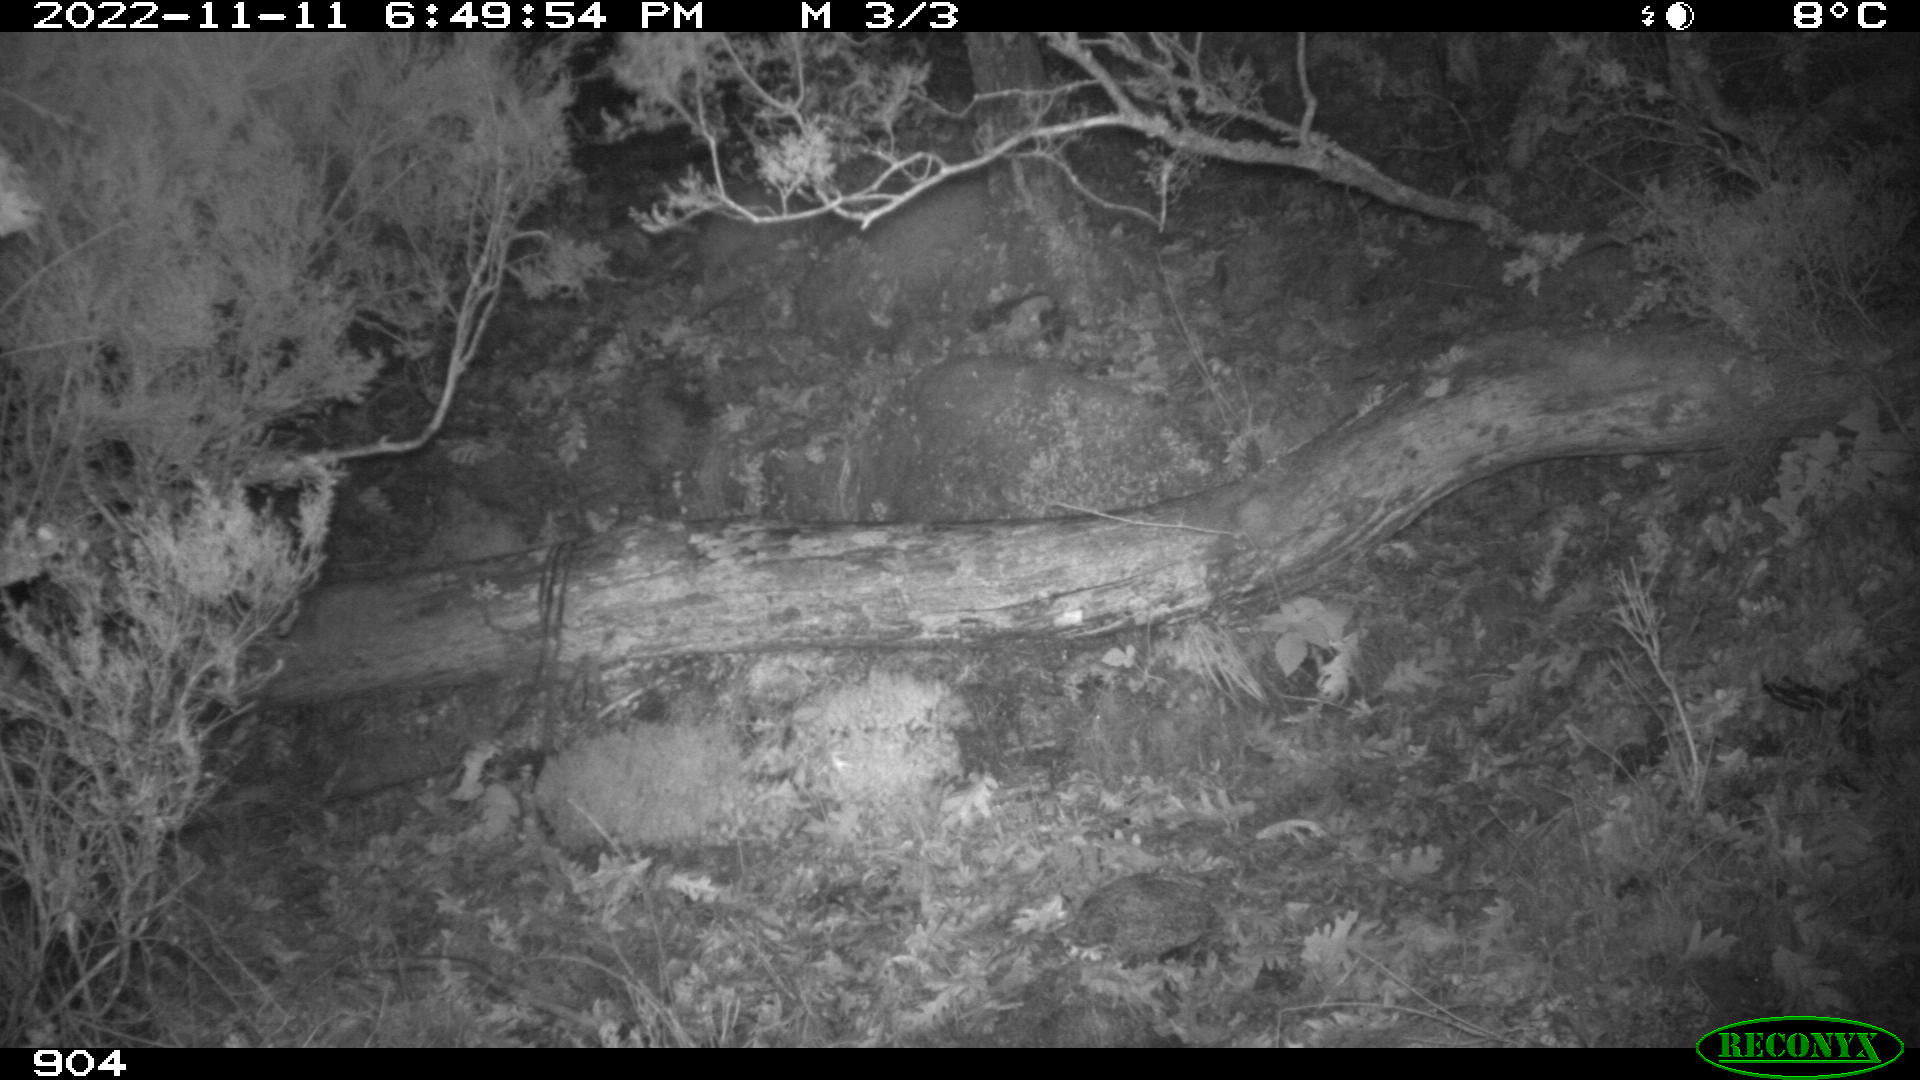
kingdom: Animalia
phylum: Chordata
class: Mammalia
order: Artiodactyla
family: Bovidae
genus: Bos
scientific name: Bos taurus
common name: Domesticated cattle
